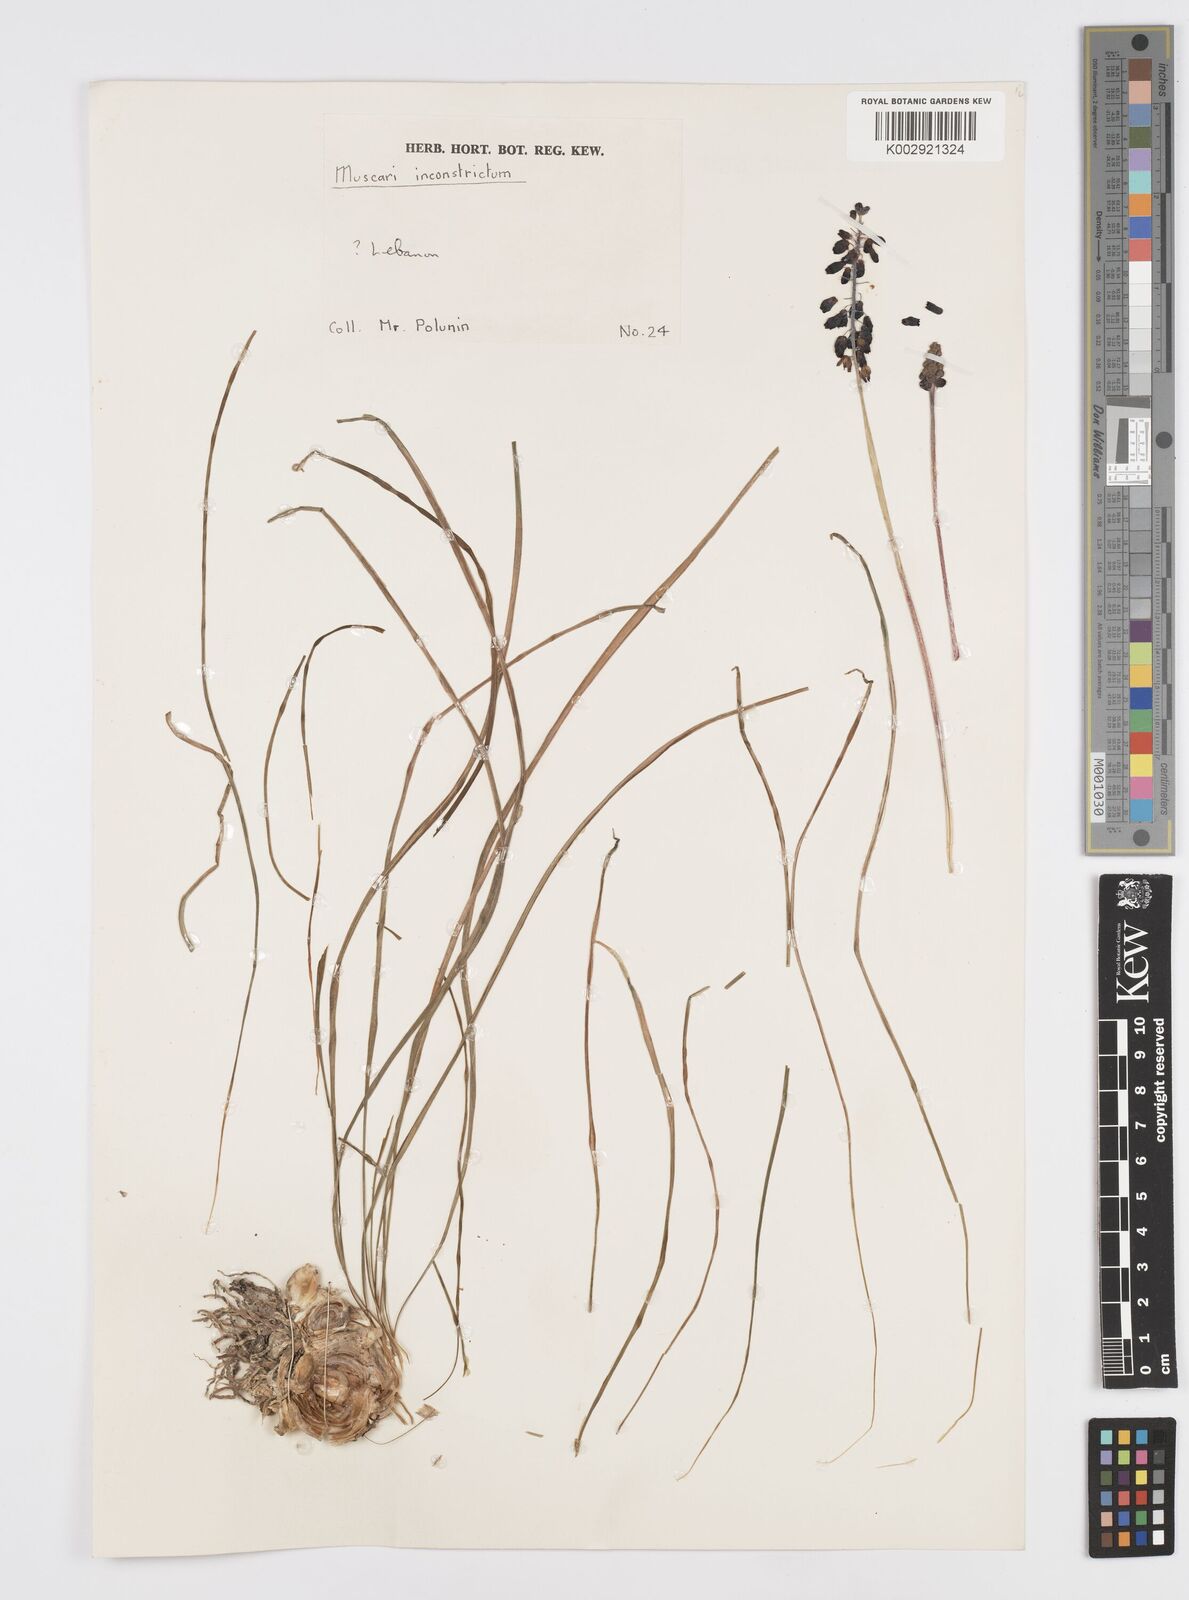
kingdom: Plantae
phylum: Tracheophyta
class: Liliopsida
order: Asparagales
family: Asparagaceae
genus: Muscari
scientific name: Muscari inconstrictum
